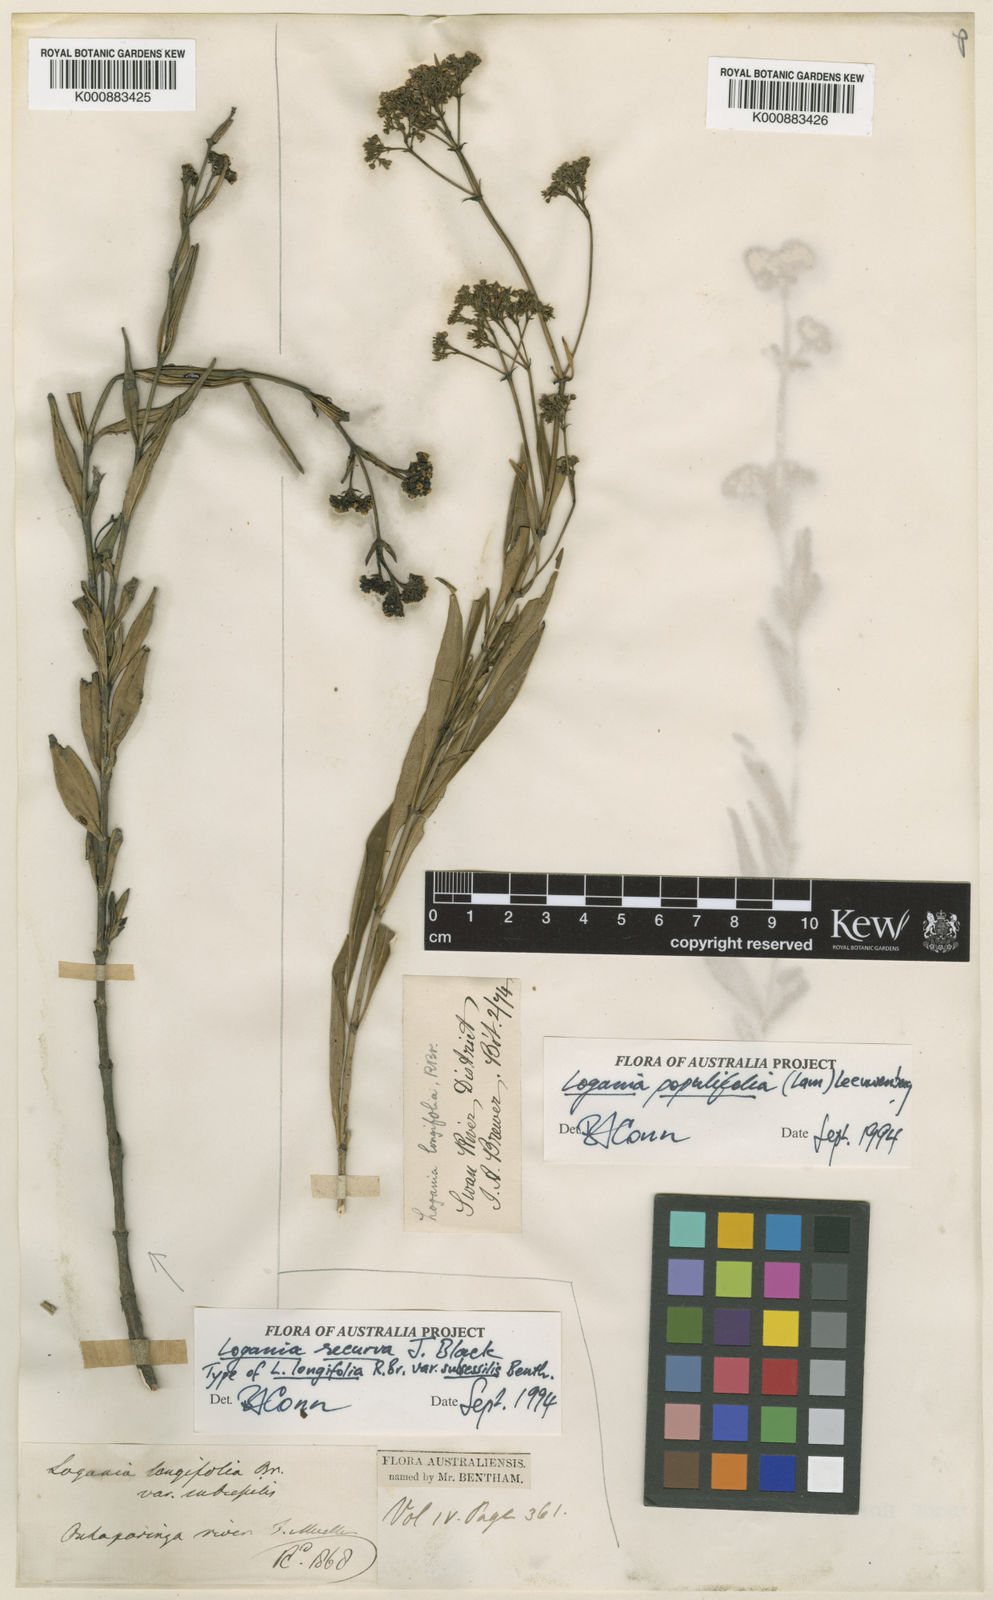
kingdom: Plantae
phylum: Tracheophyta
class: Magnoliopsida
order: Gentianales
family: Loganiaceae
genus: Logania
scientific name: Logania recurva
